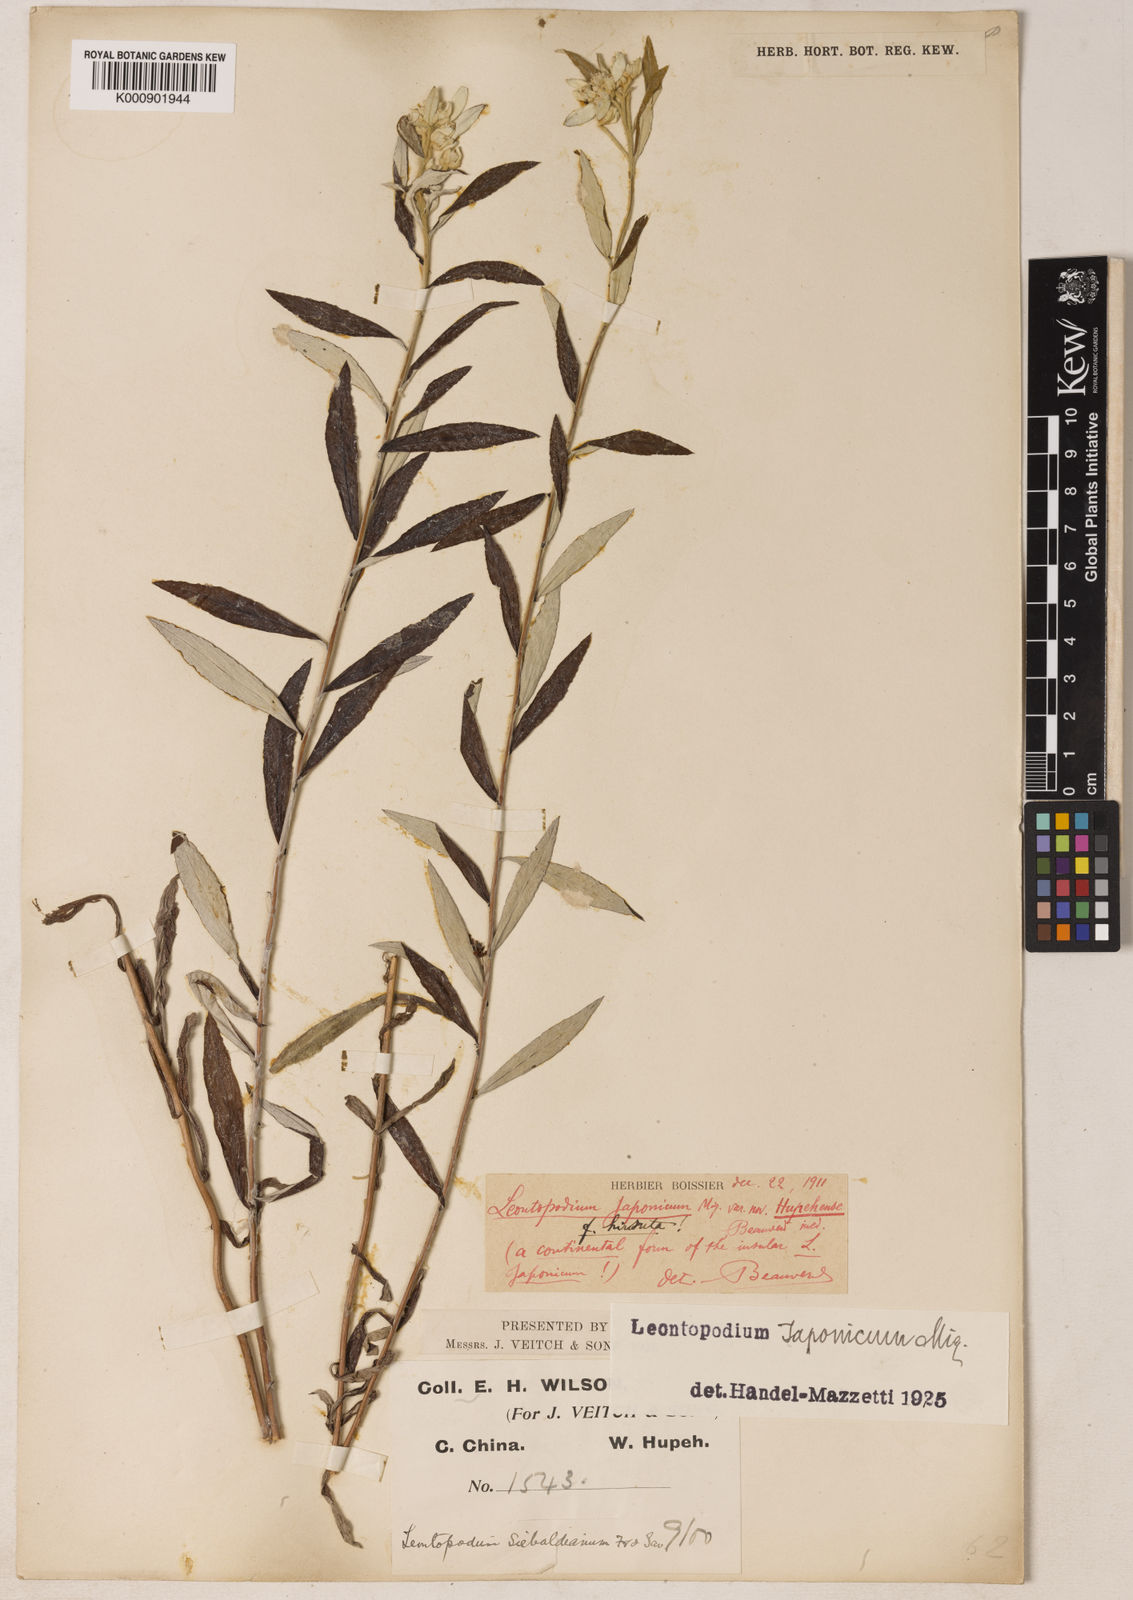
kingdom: Plantae
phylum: Tracheophyta
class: Magnoliopsida
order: Asterales
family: Asteraceae
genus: Leontopodium
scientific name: Leontopodium japonicum
